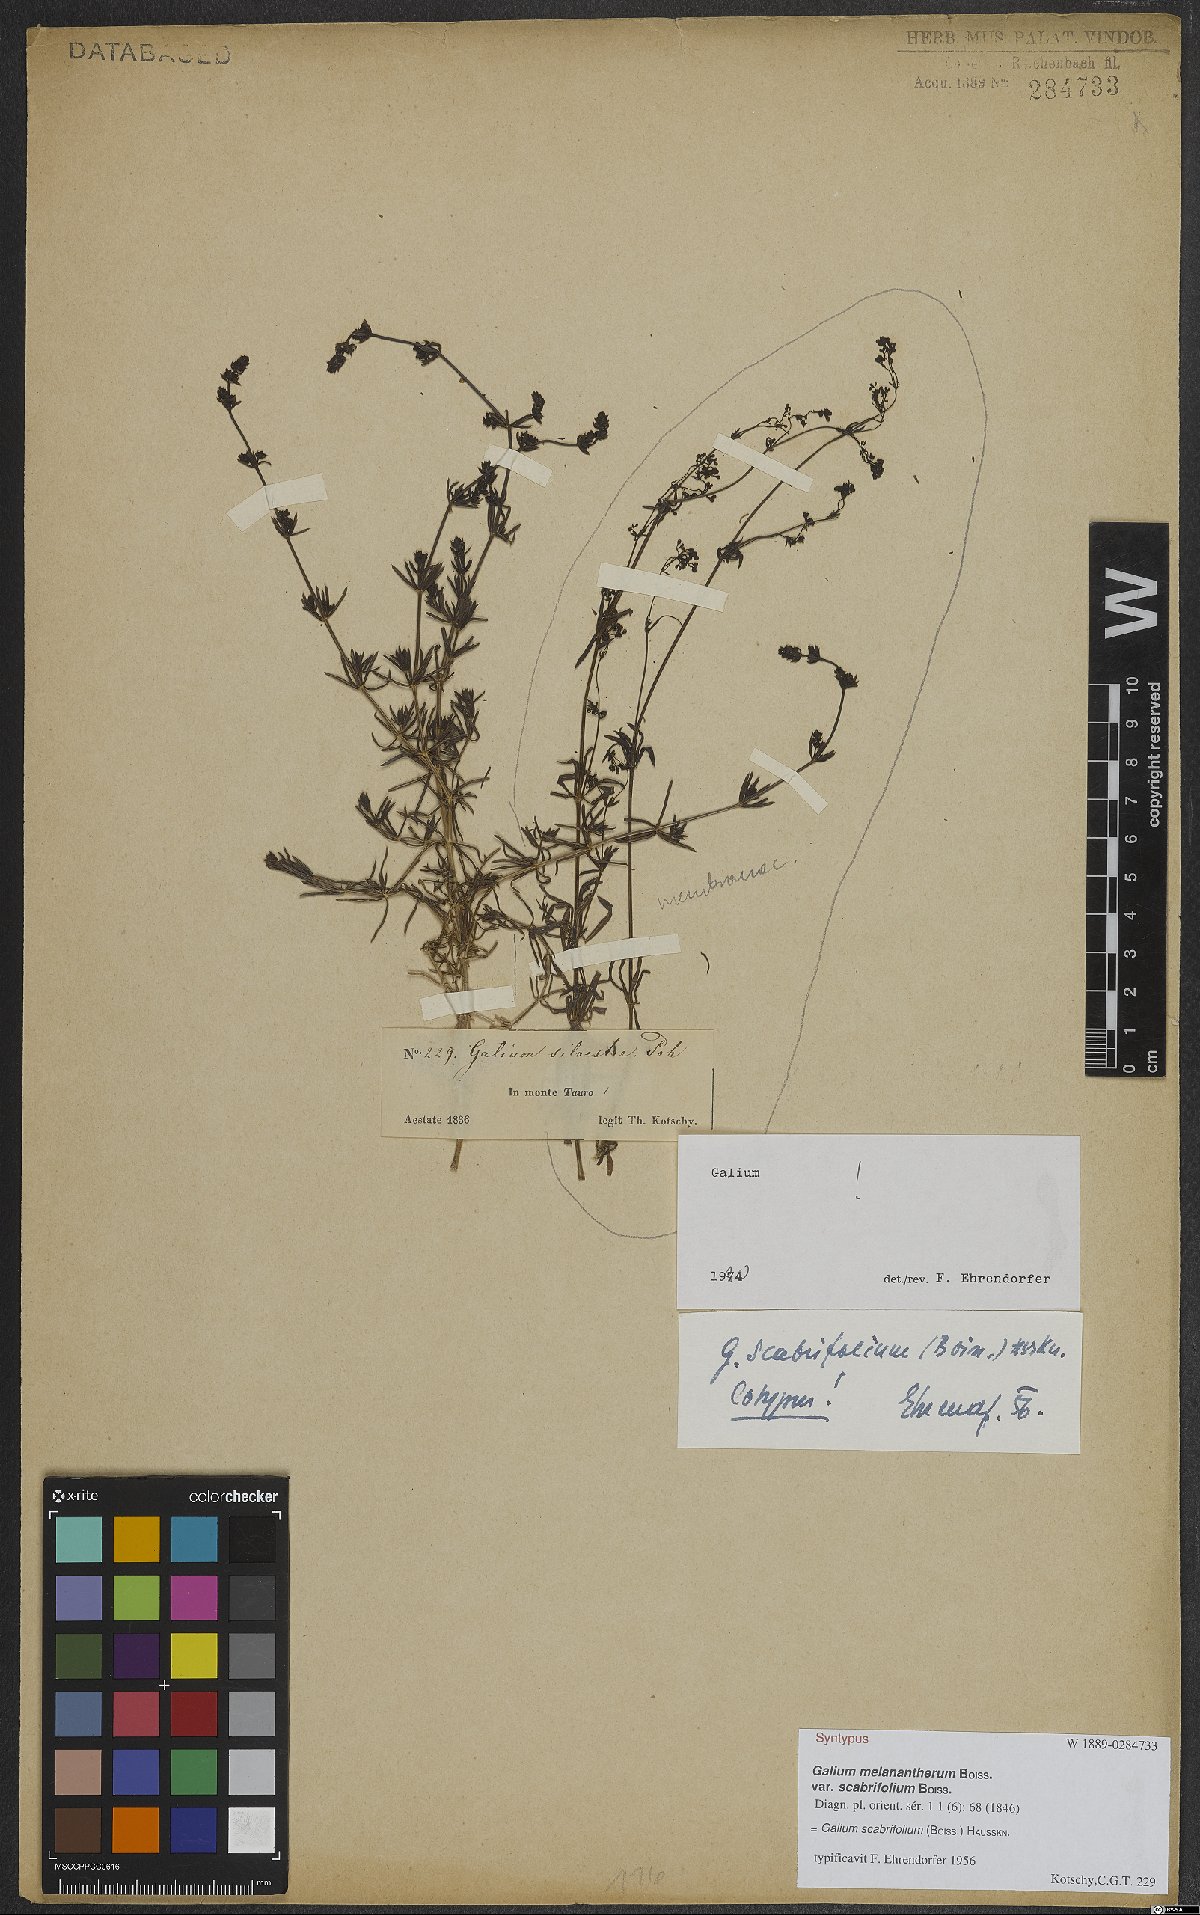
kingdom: Plantae
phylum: Tracheophyta
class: Magnoliopsida
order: Gentianales
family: Rubiaceae
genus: Galium
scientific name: Galium scabrifolium
